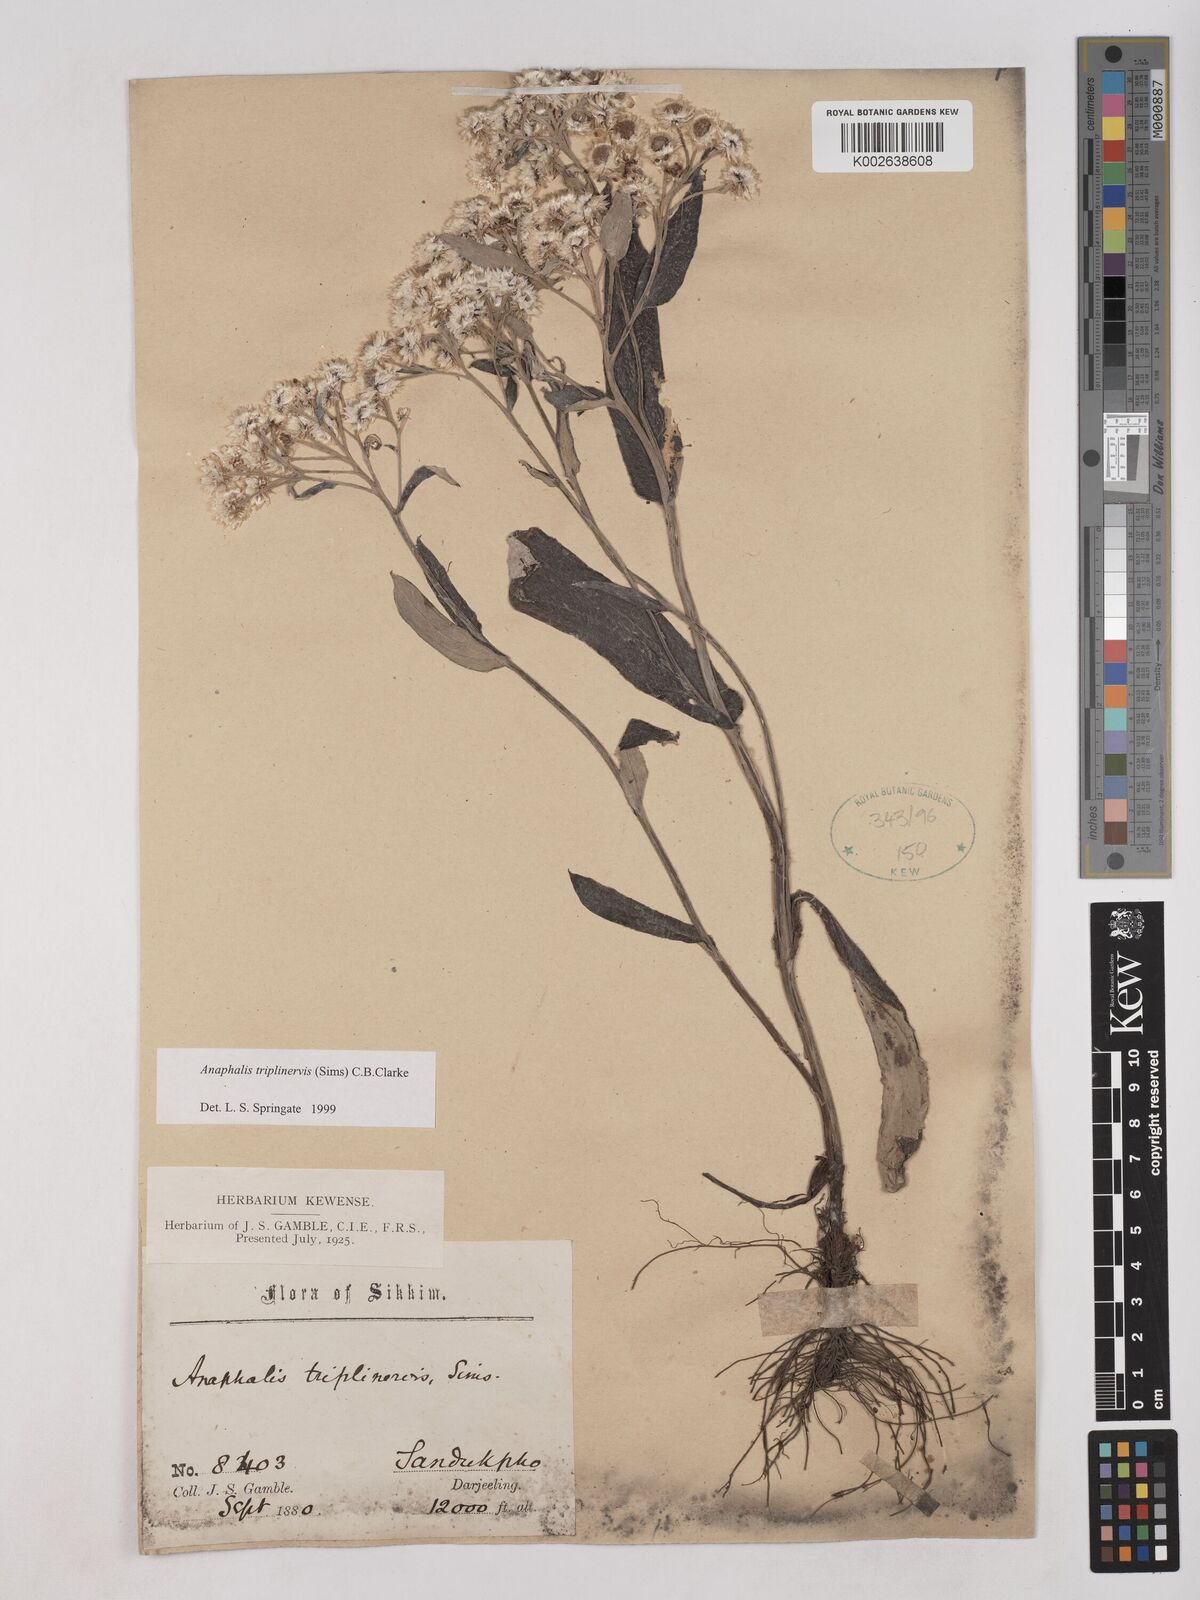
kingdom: Plantae
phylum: Tracheophyta
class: Magnoliopsida
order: Asterales
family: Asteraceae
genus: Anaphalis
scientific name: Anaphalis triplinervis
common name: Pearly everlasting
